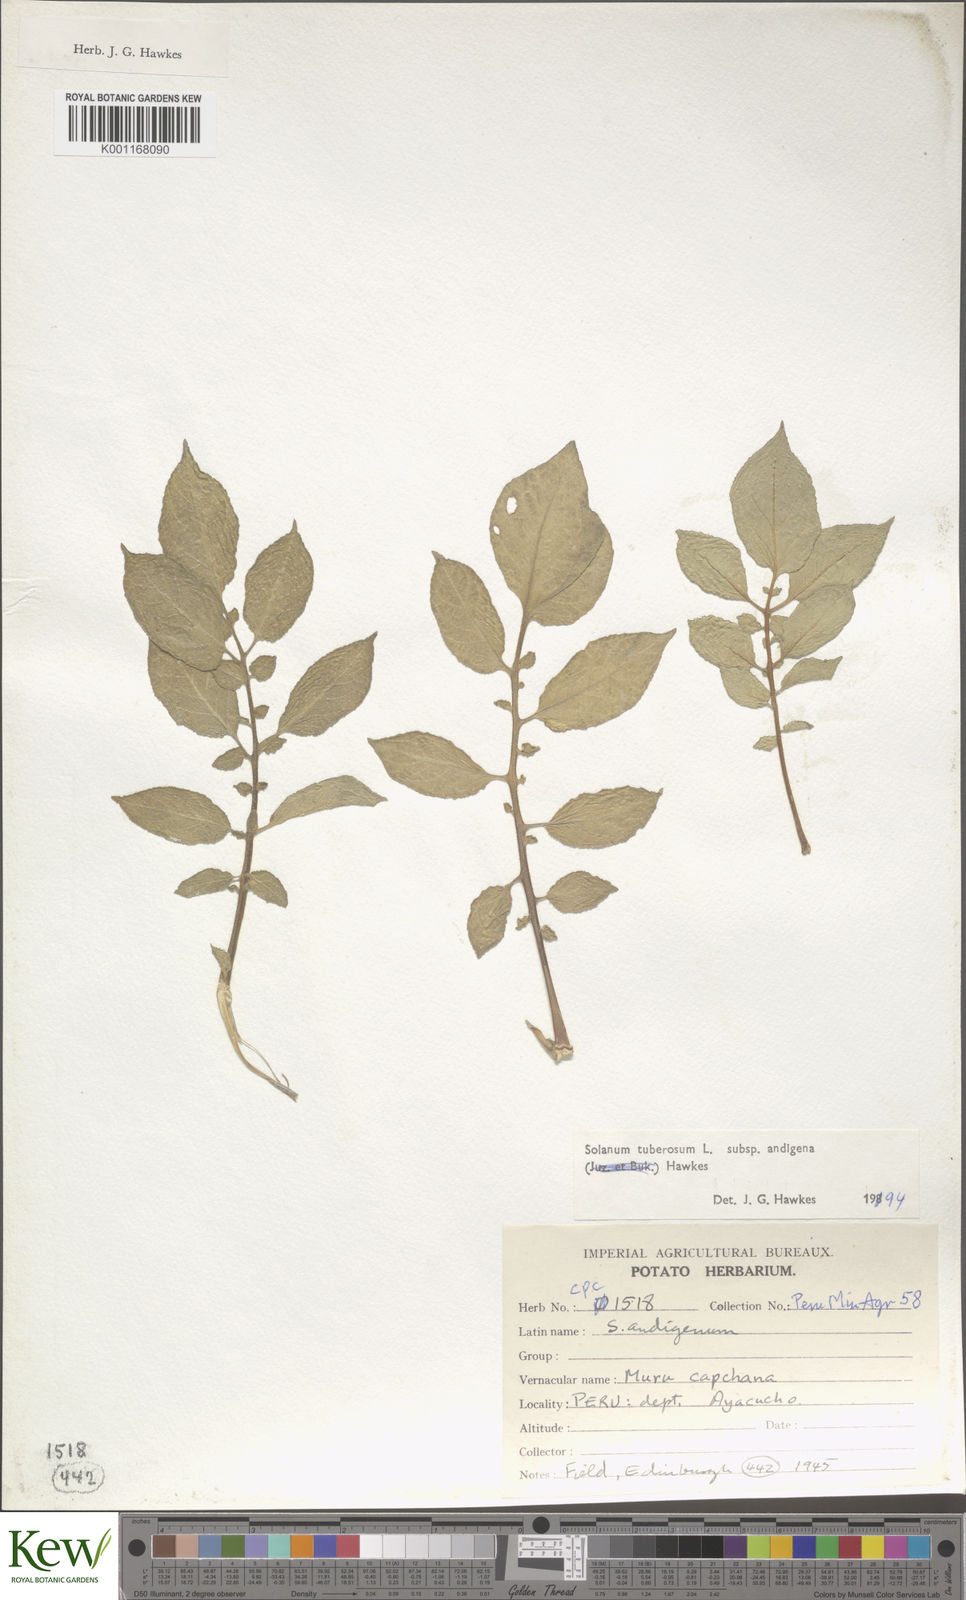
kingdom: Plantae
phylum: Tracheophyta
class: Magnoliopsida
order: Solanales
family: Solanaceae
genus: Solanum
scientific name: Solanum tuberosum
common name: Potato
